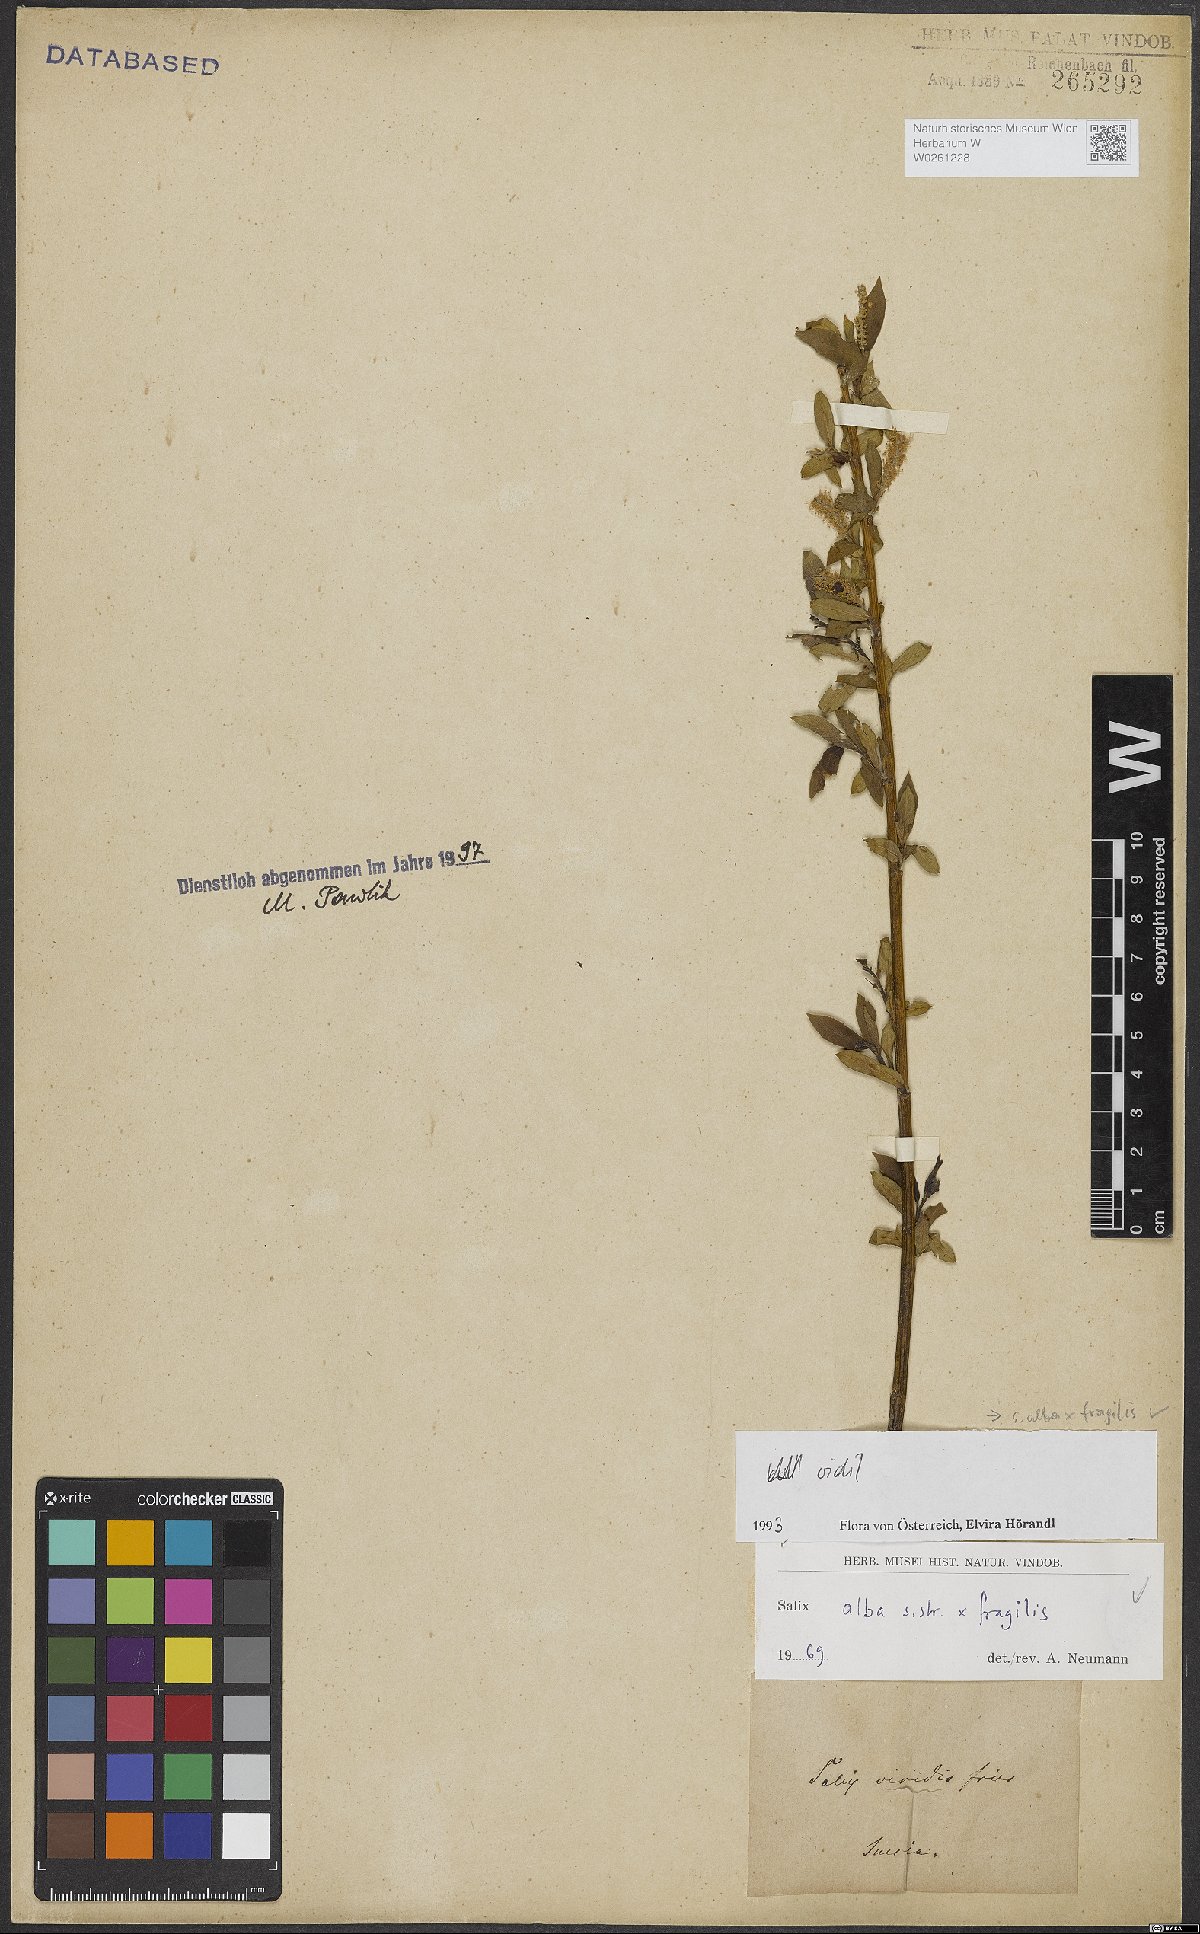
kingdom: Plantae
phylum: Tracheophyta
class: Magnoliopsida
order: Malpighiales
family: Salicaceae
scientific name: Salicaceae
